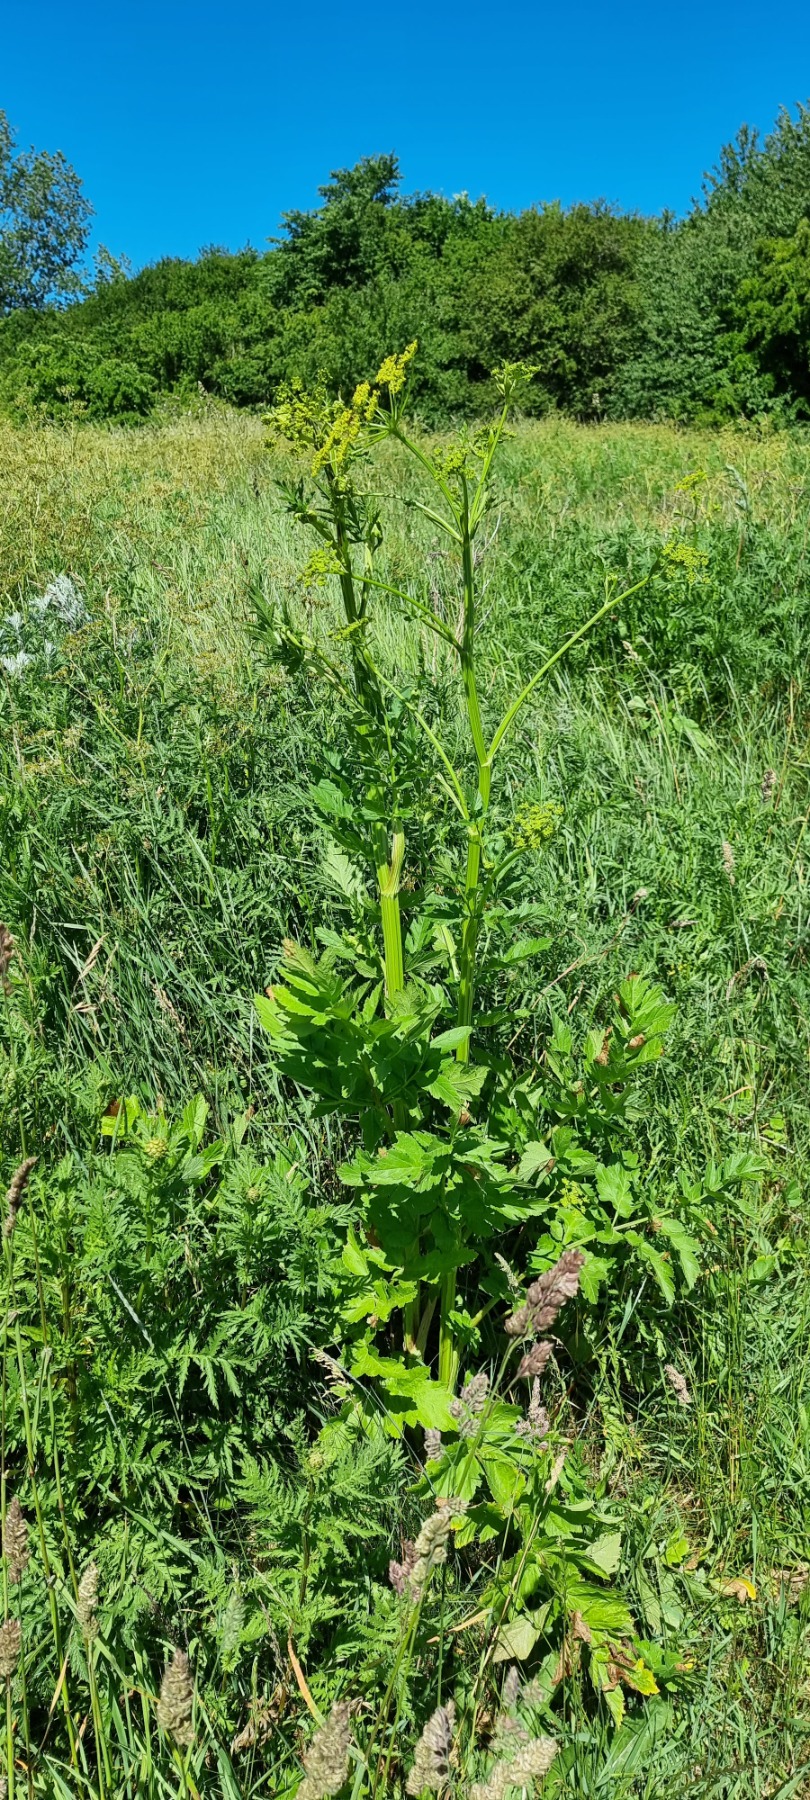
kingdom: Plantae
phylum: Tracheophyta
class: Magnoliopsida
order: Apiales
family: Apiaceae
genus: Pastinaca
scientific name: Pastinaca sativa
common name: Pastinak
